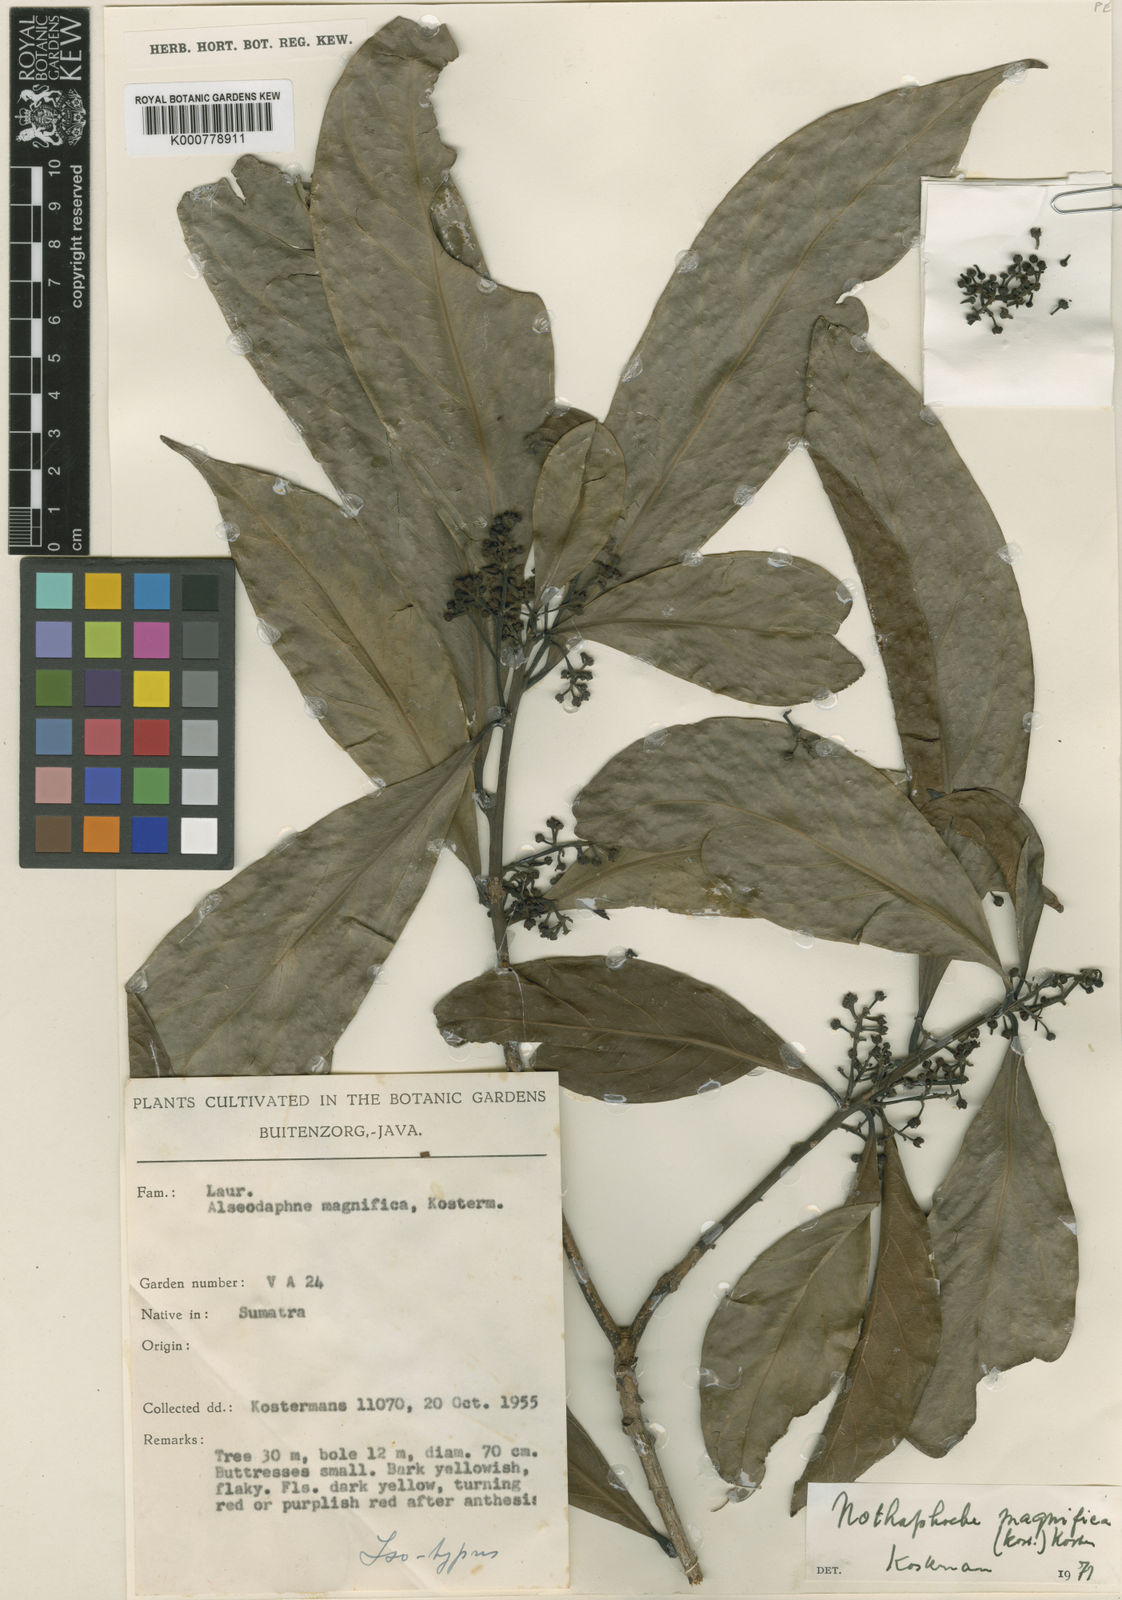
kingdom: Plantae
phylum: Tracheophyta
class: Magnoliopsida
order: Laurales
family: Lauraceae
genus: Nothaphoebe
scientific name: Nothaphoebe magnifica
